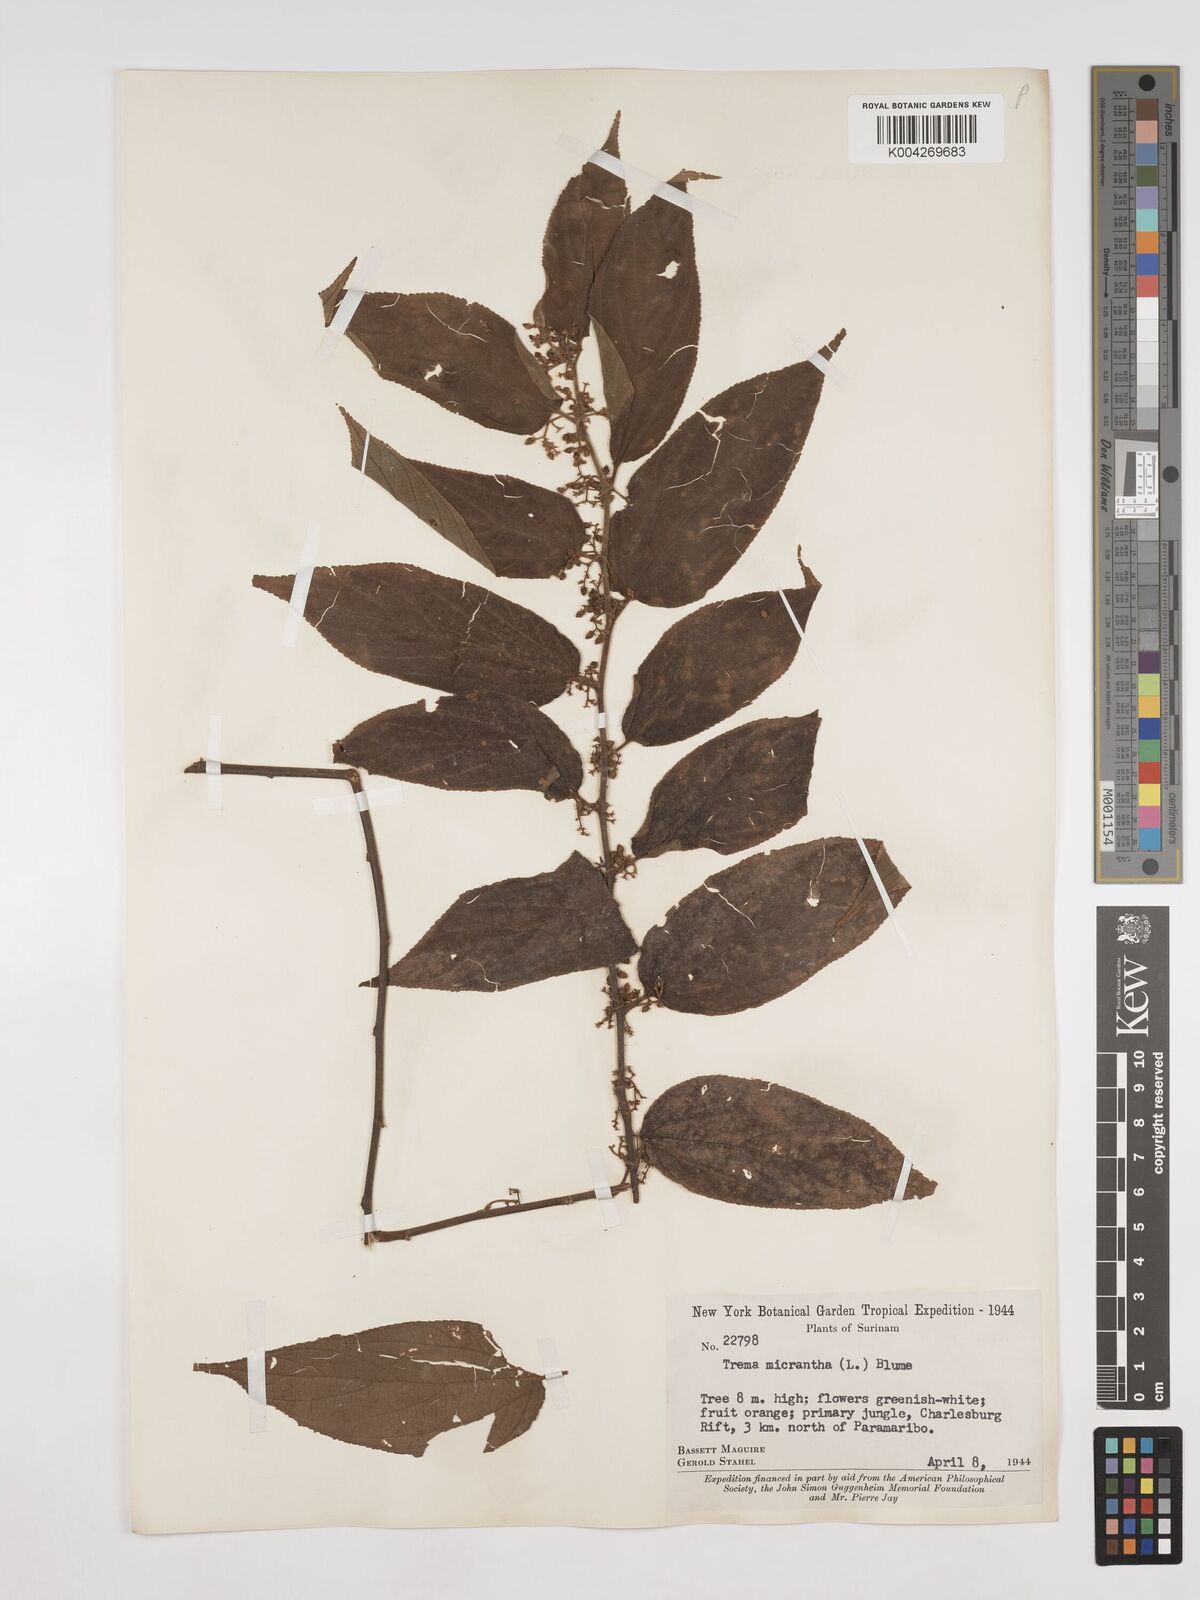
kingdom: Plantae
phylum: Tracheophyta
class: Magnoliopsida
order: Rosales
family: Cannabaceae
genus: Trema
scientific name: Trema micranthum
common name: Jamaican nettletree
